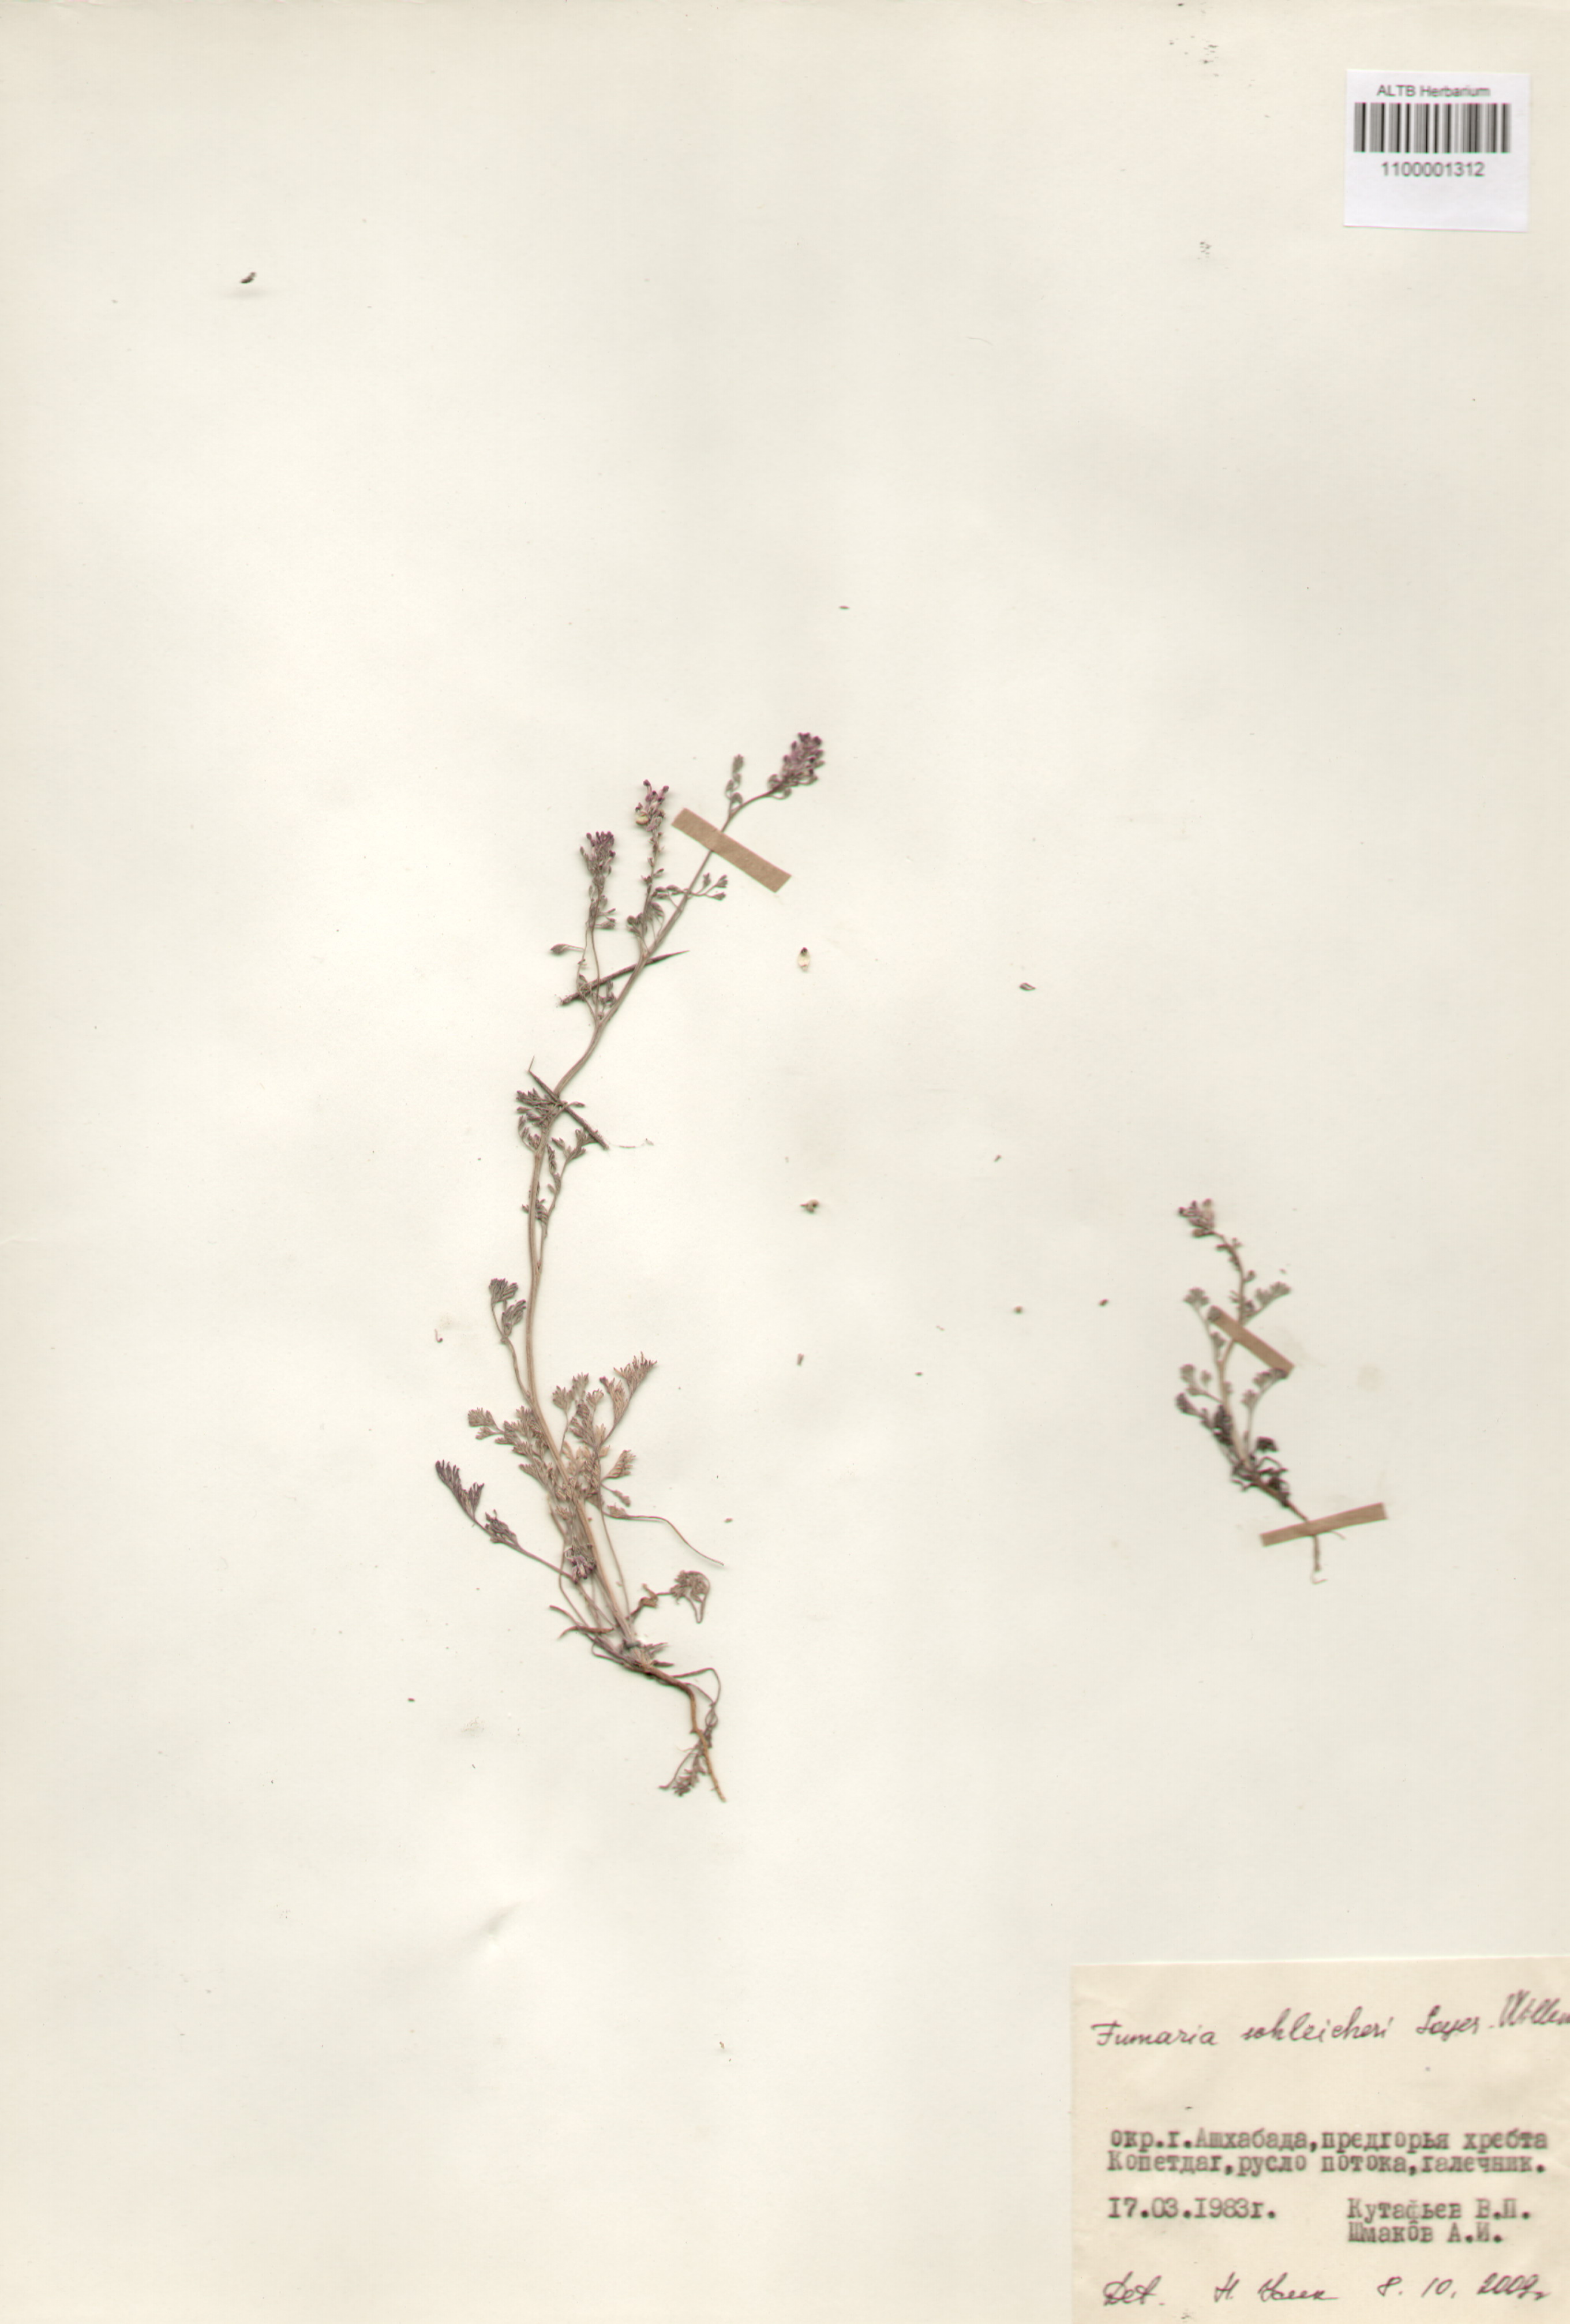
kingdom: Plantae
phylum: Tracheophyta
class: Magnoliopsida
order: Ranunculales
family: Papaveraceae
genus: Fumaria
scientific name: Fumaria schleicheri
